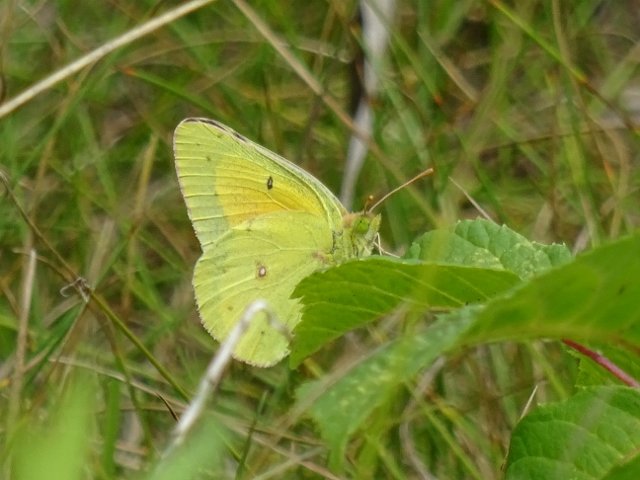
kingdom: Animalia
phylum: Arthropoda
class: Insecta
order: Lepidoptera
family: Pieridae
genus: Colias
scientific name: Colias eurytheme
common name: Orange Sulphur
